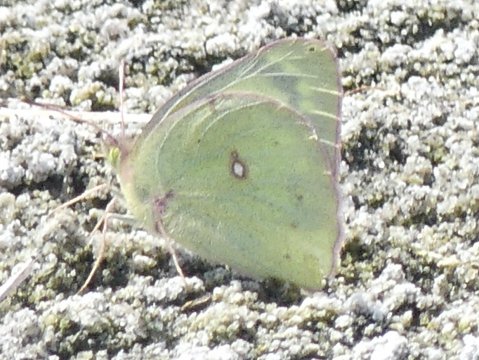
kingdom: Animalia
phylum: Arthropoda
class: Insecta
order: Lepidoptera
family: Pieridae
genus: Colias
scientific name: Colias philodice
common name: Clouded Sulphur
